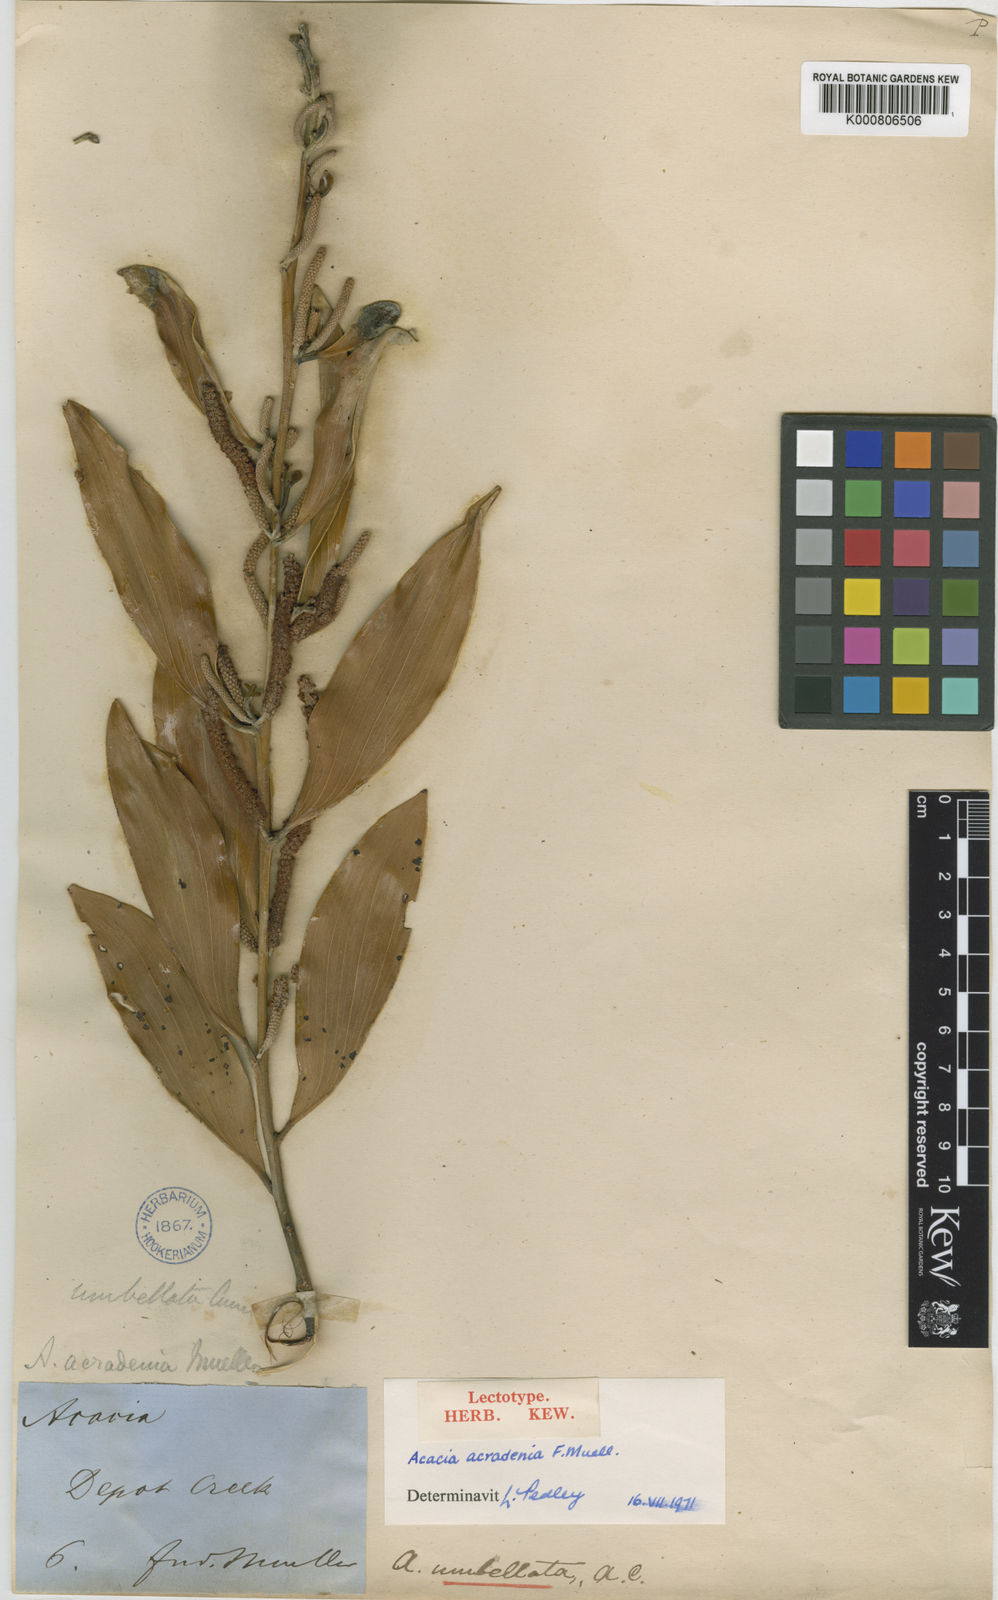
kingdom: Plantae
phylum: Tracheophyta
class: Magnoliopsida
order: Fabales
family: Fabaceae
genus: Acacia
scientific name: Acacia umbellata
